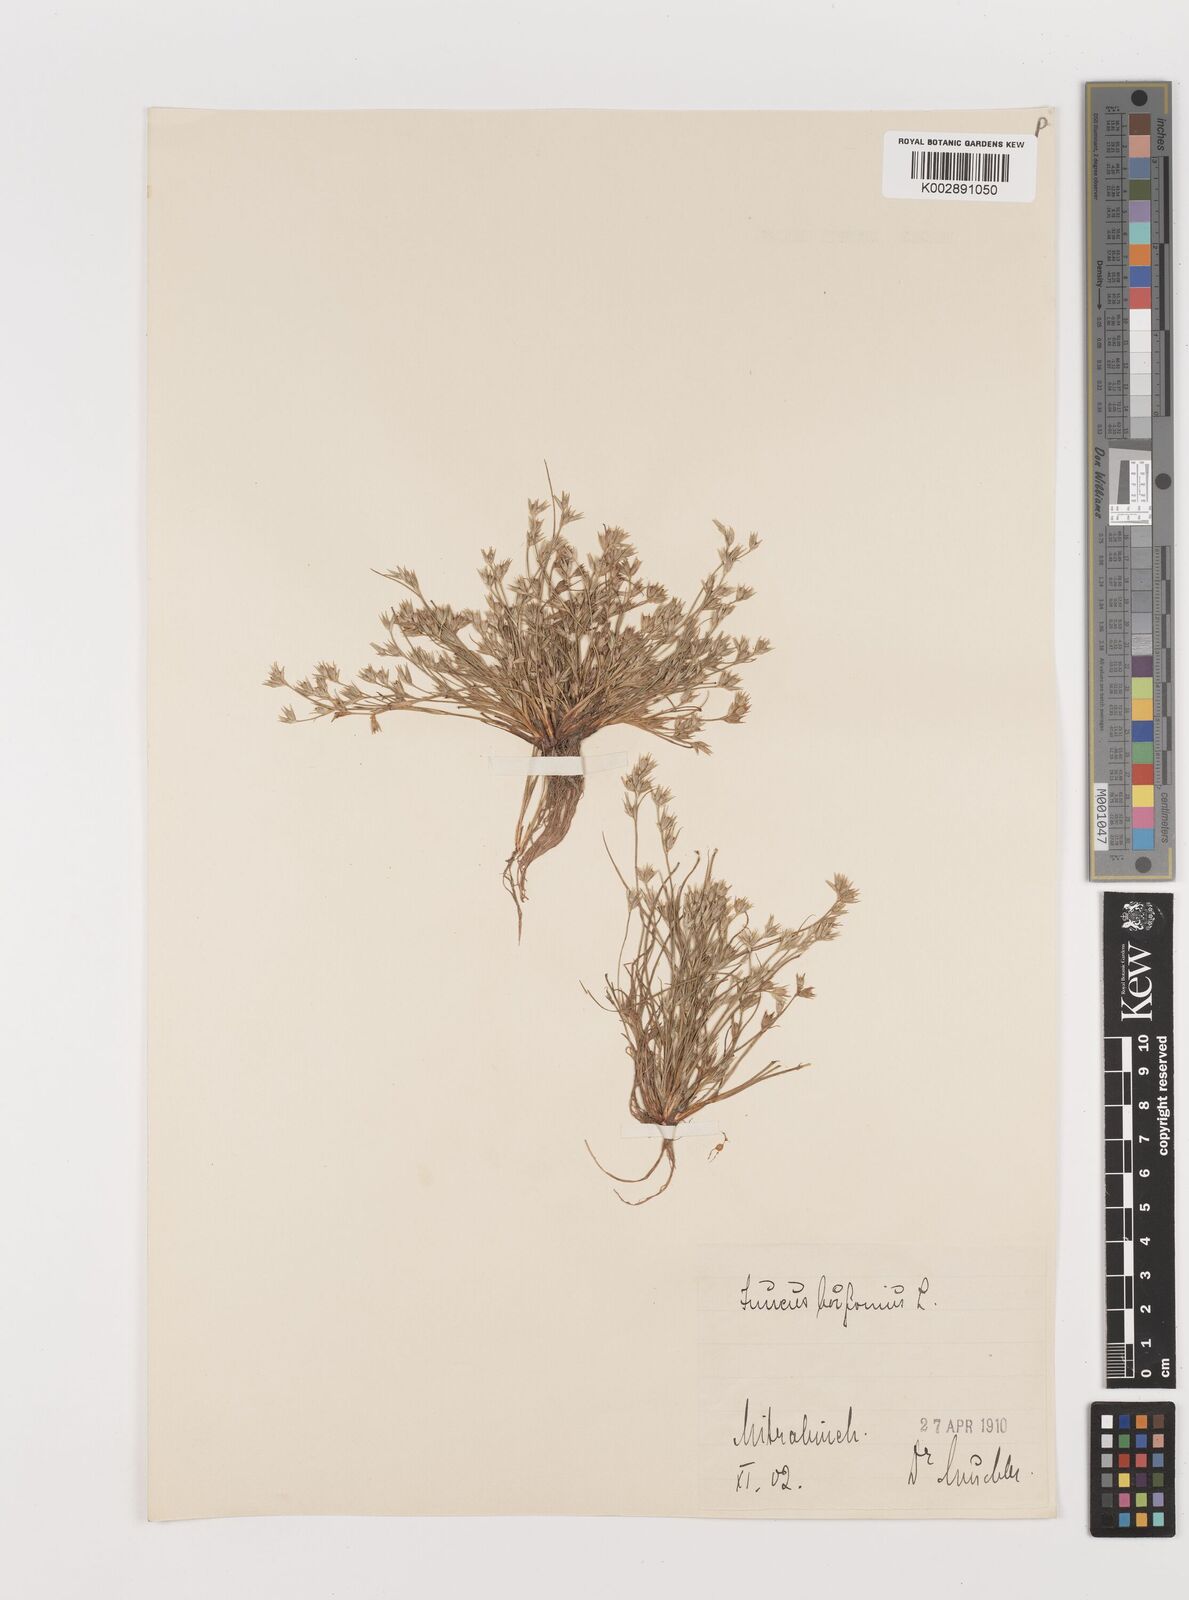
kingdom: Plantae
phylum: Tracheophyta
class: Liliopsida
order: Poales
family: Juncaceae
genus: Juncus
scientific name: Juncus bufonius
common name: Toad rush
